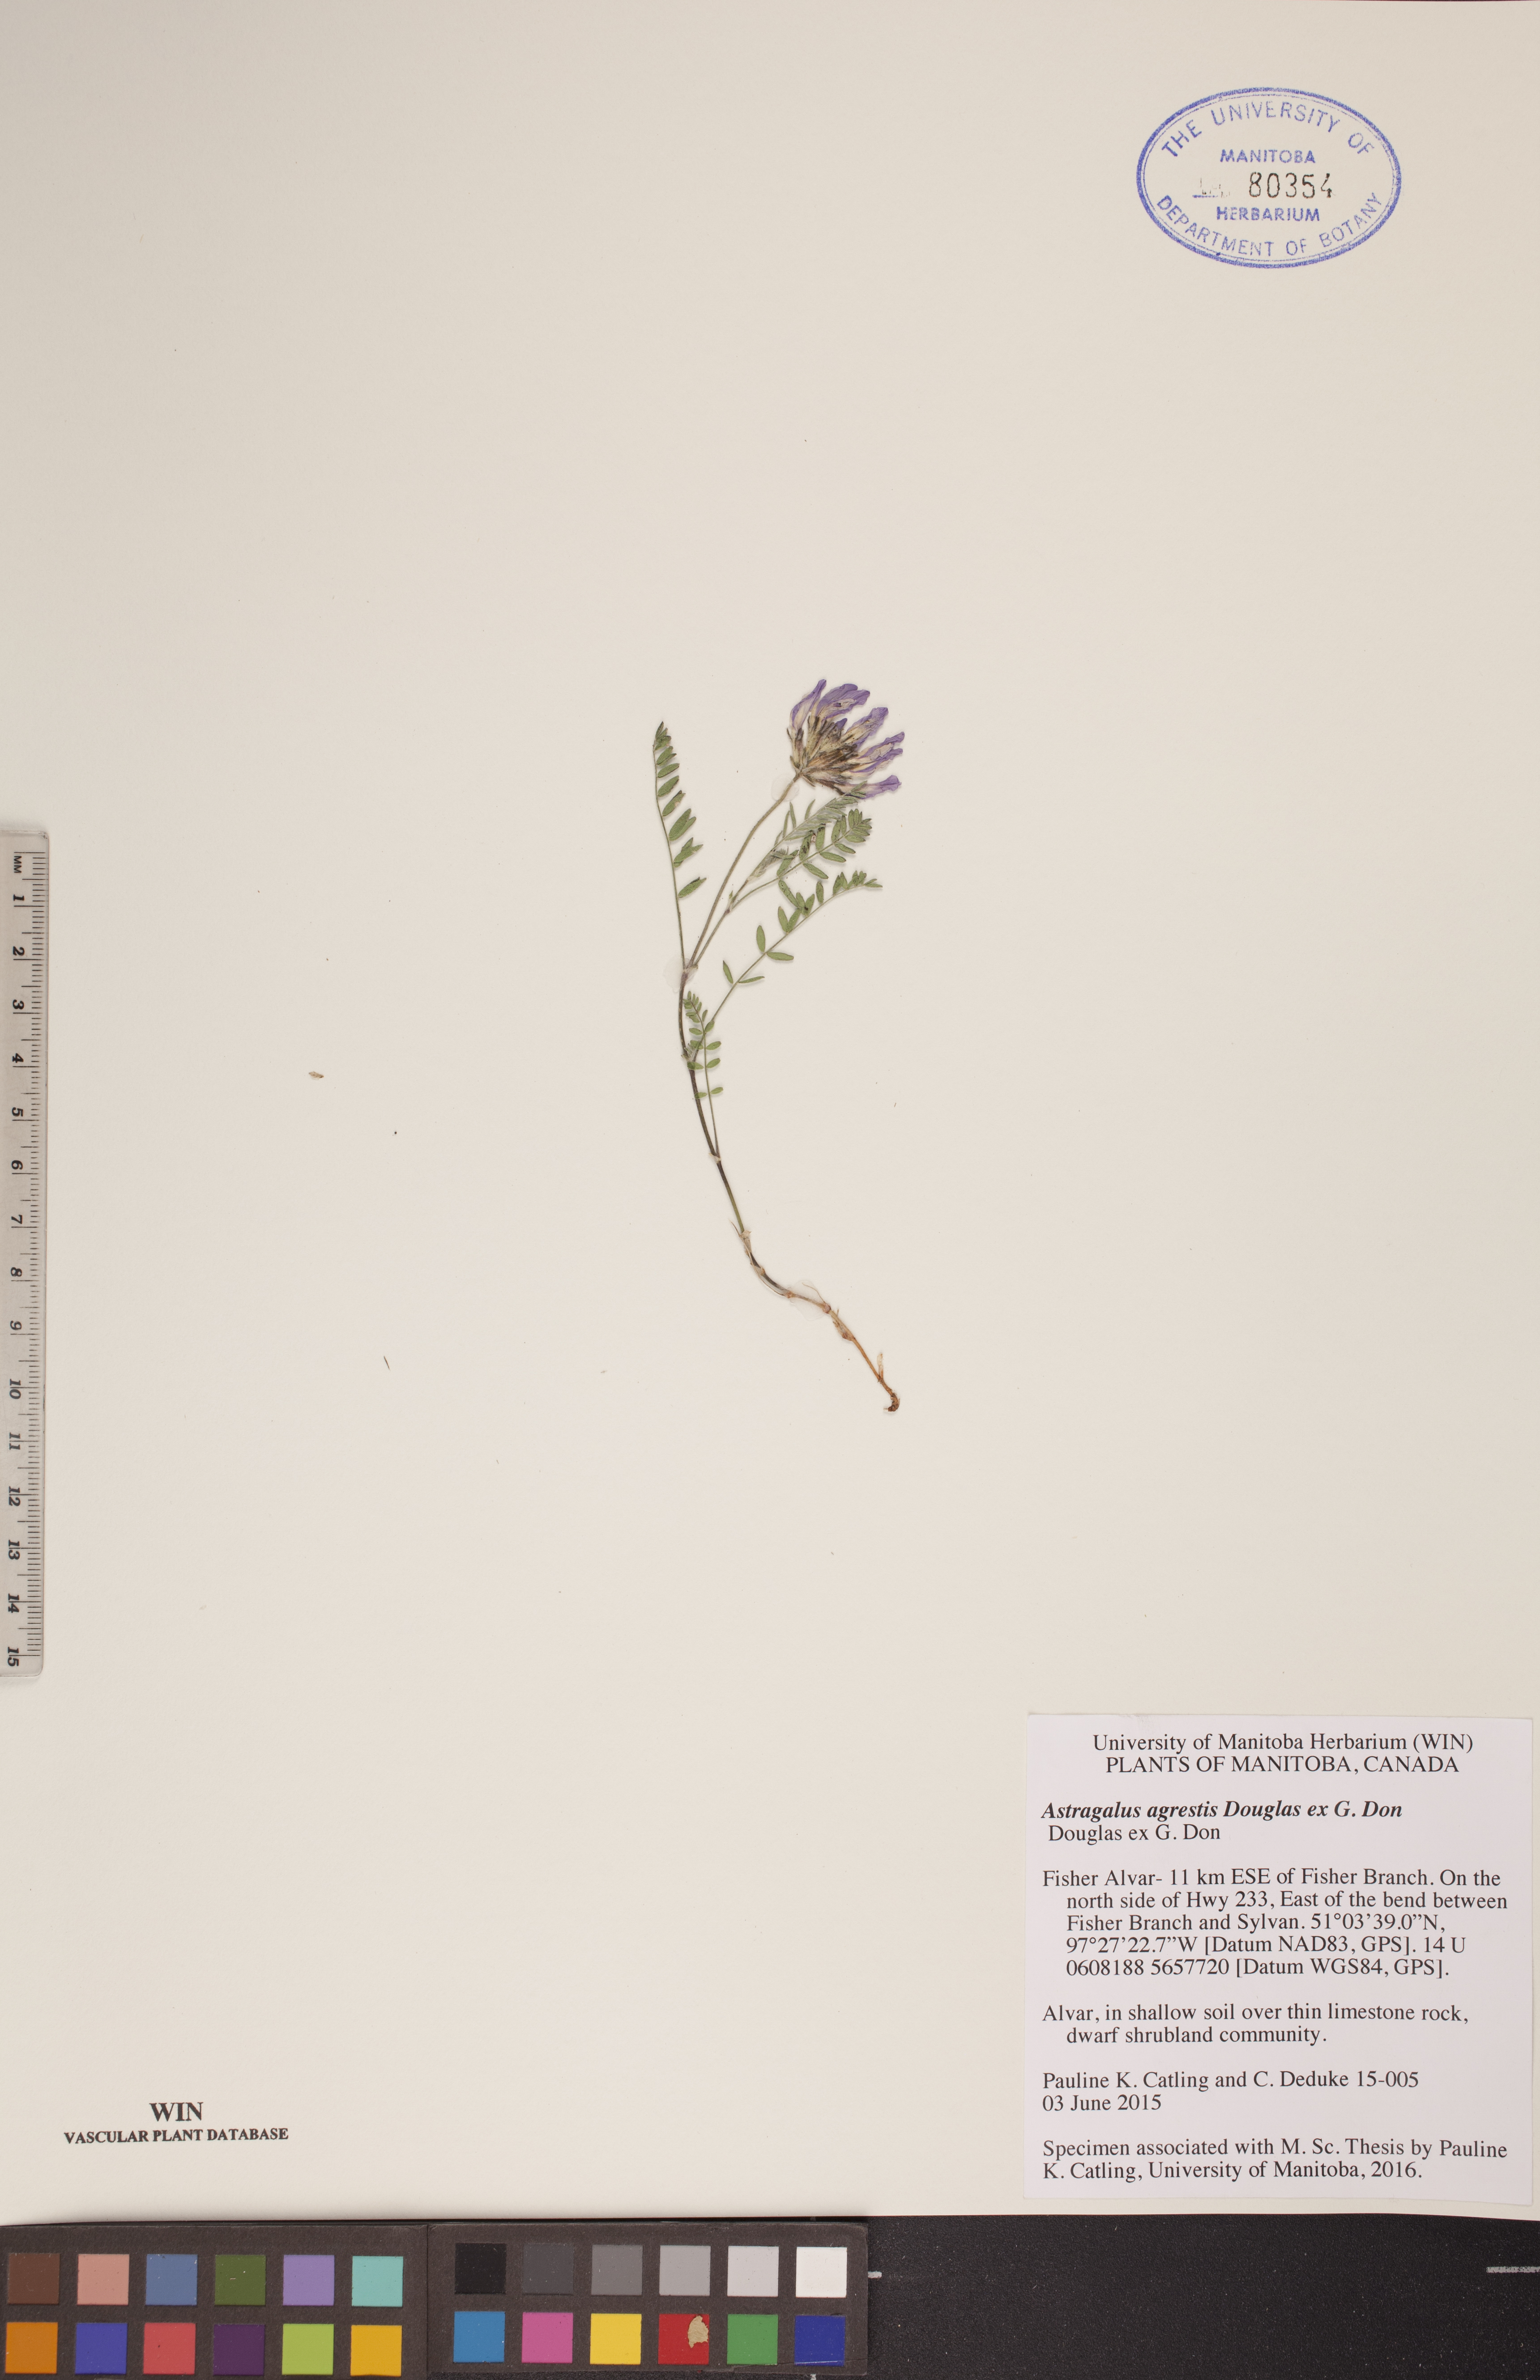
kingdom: Plantae
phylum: Tracheophyta
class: Magnoliopsida
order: Fabales
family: Fabaceae
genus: Astragalus
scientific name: Astragalus agrestis
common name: Field milk-vetch
